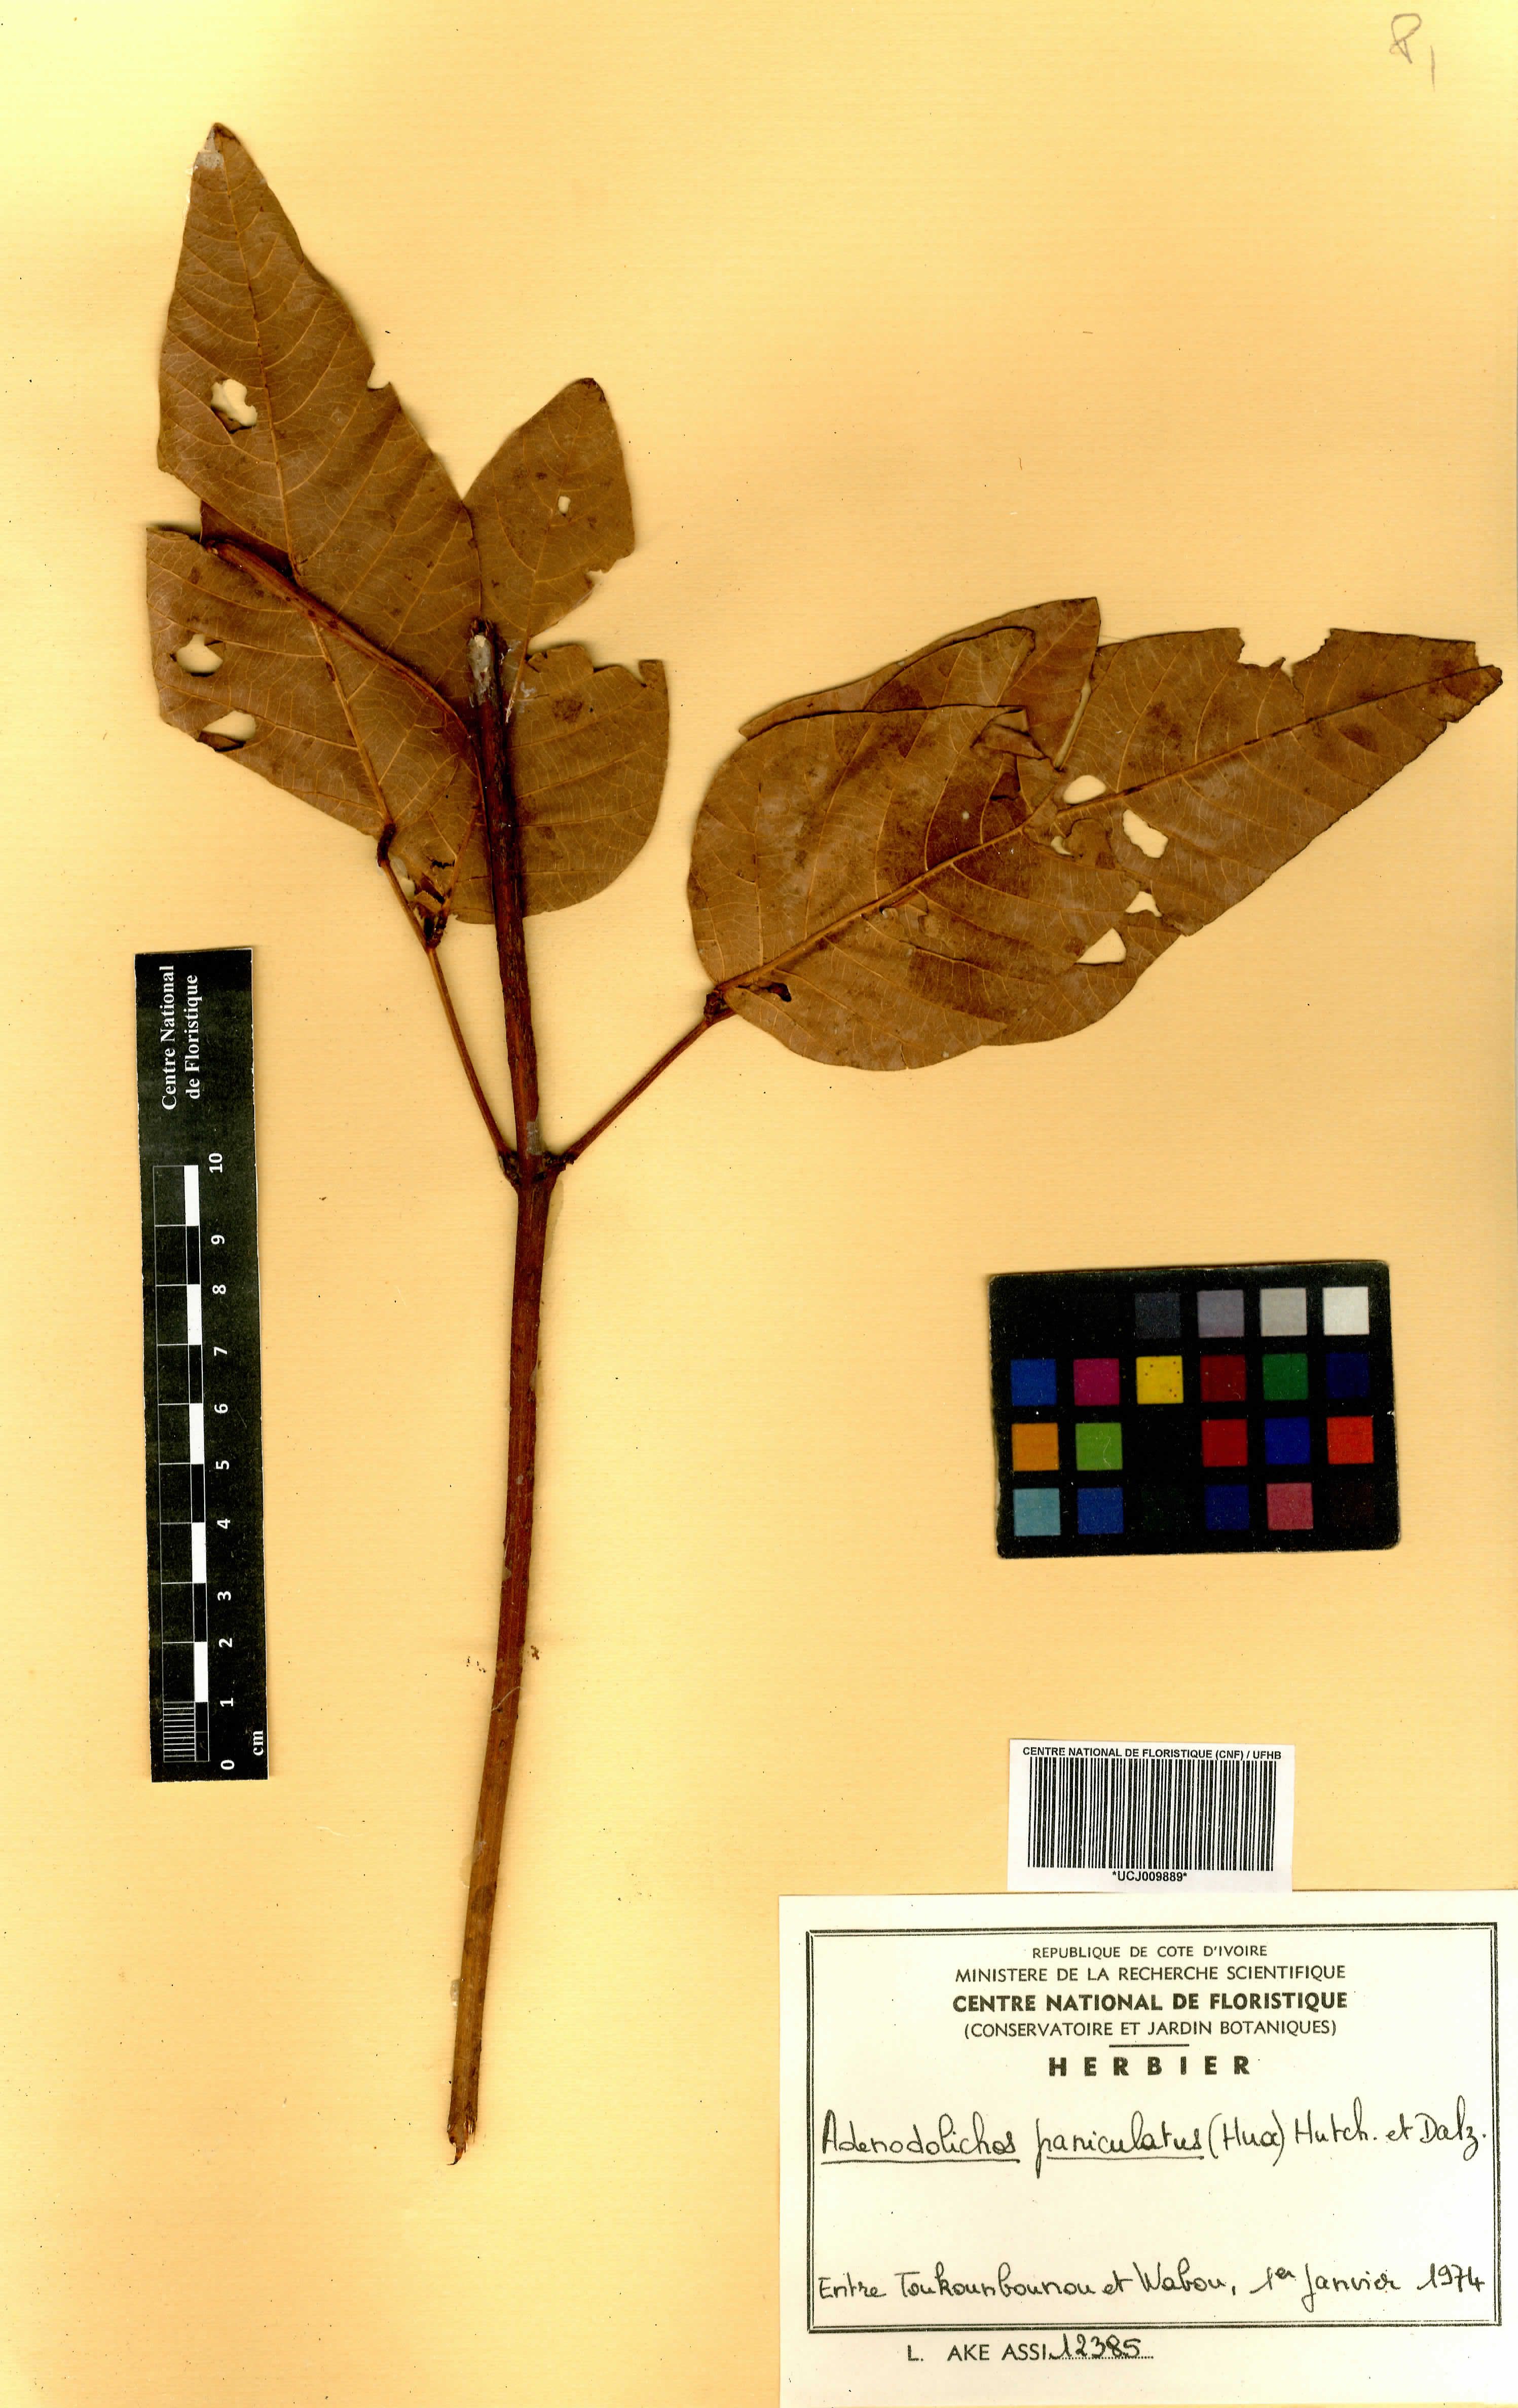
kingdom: Plantae
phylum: Tracheophyta
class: Magnoliopsida
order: Fabales
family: Fabaceae
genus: Adenodolichos
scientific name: Adenodolichos paniculatus
